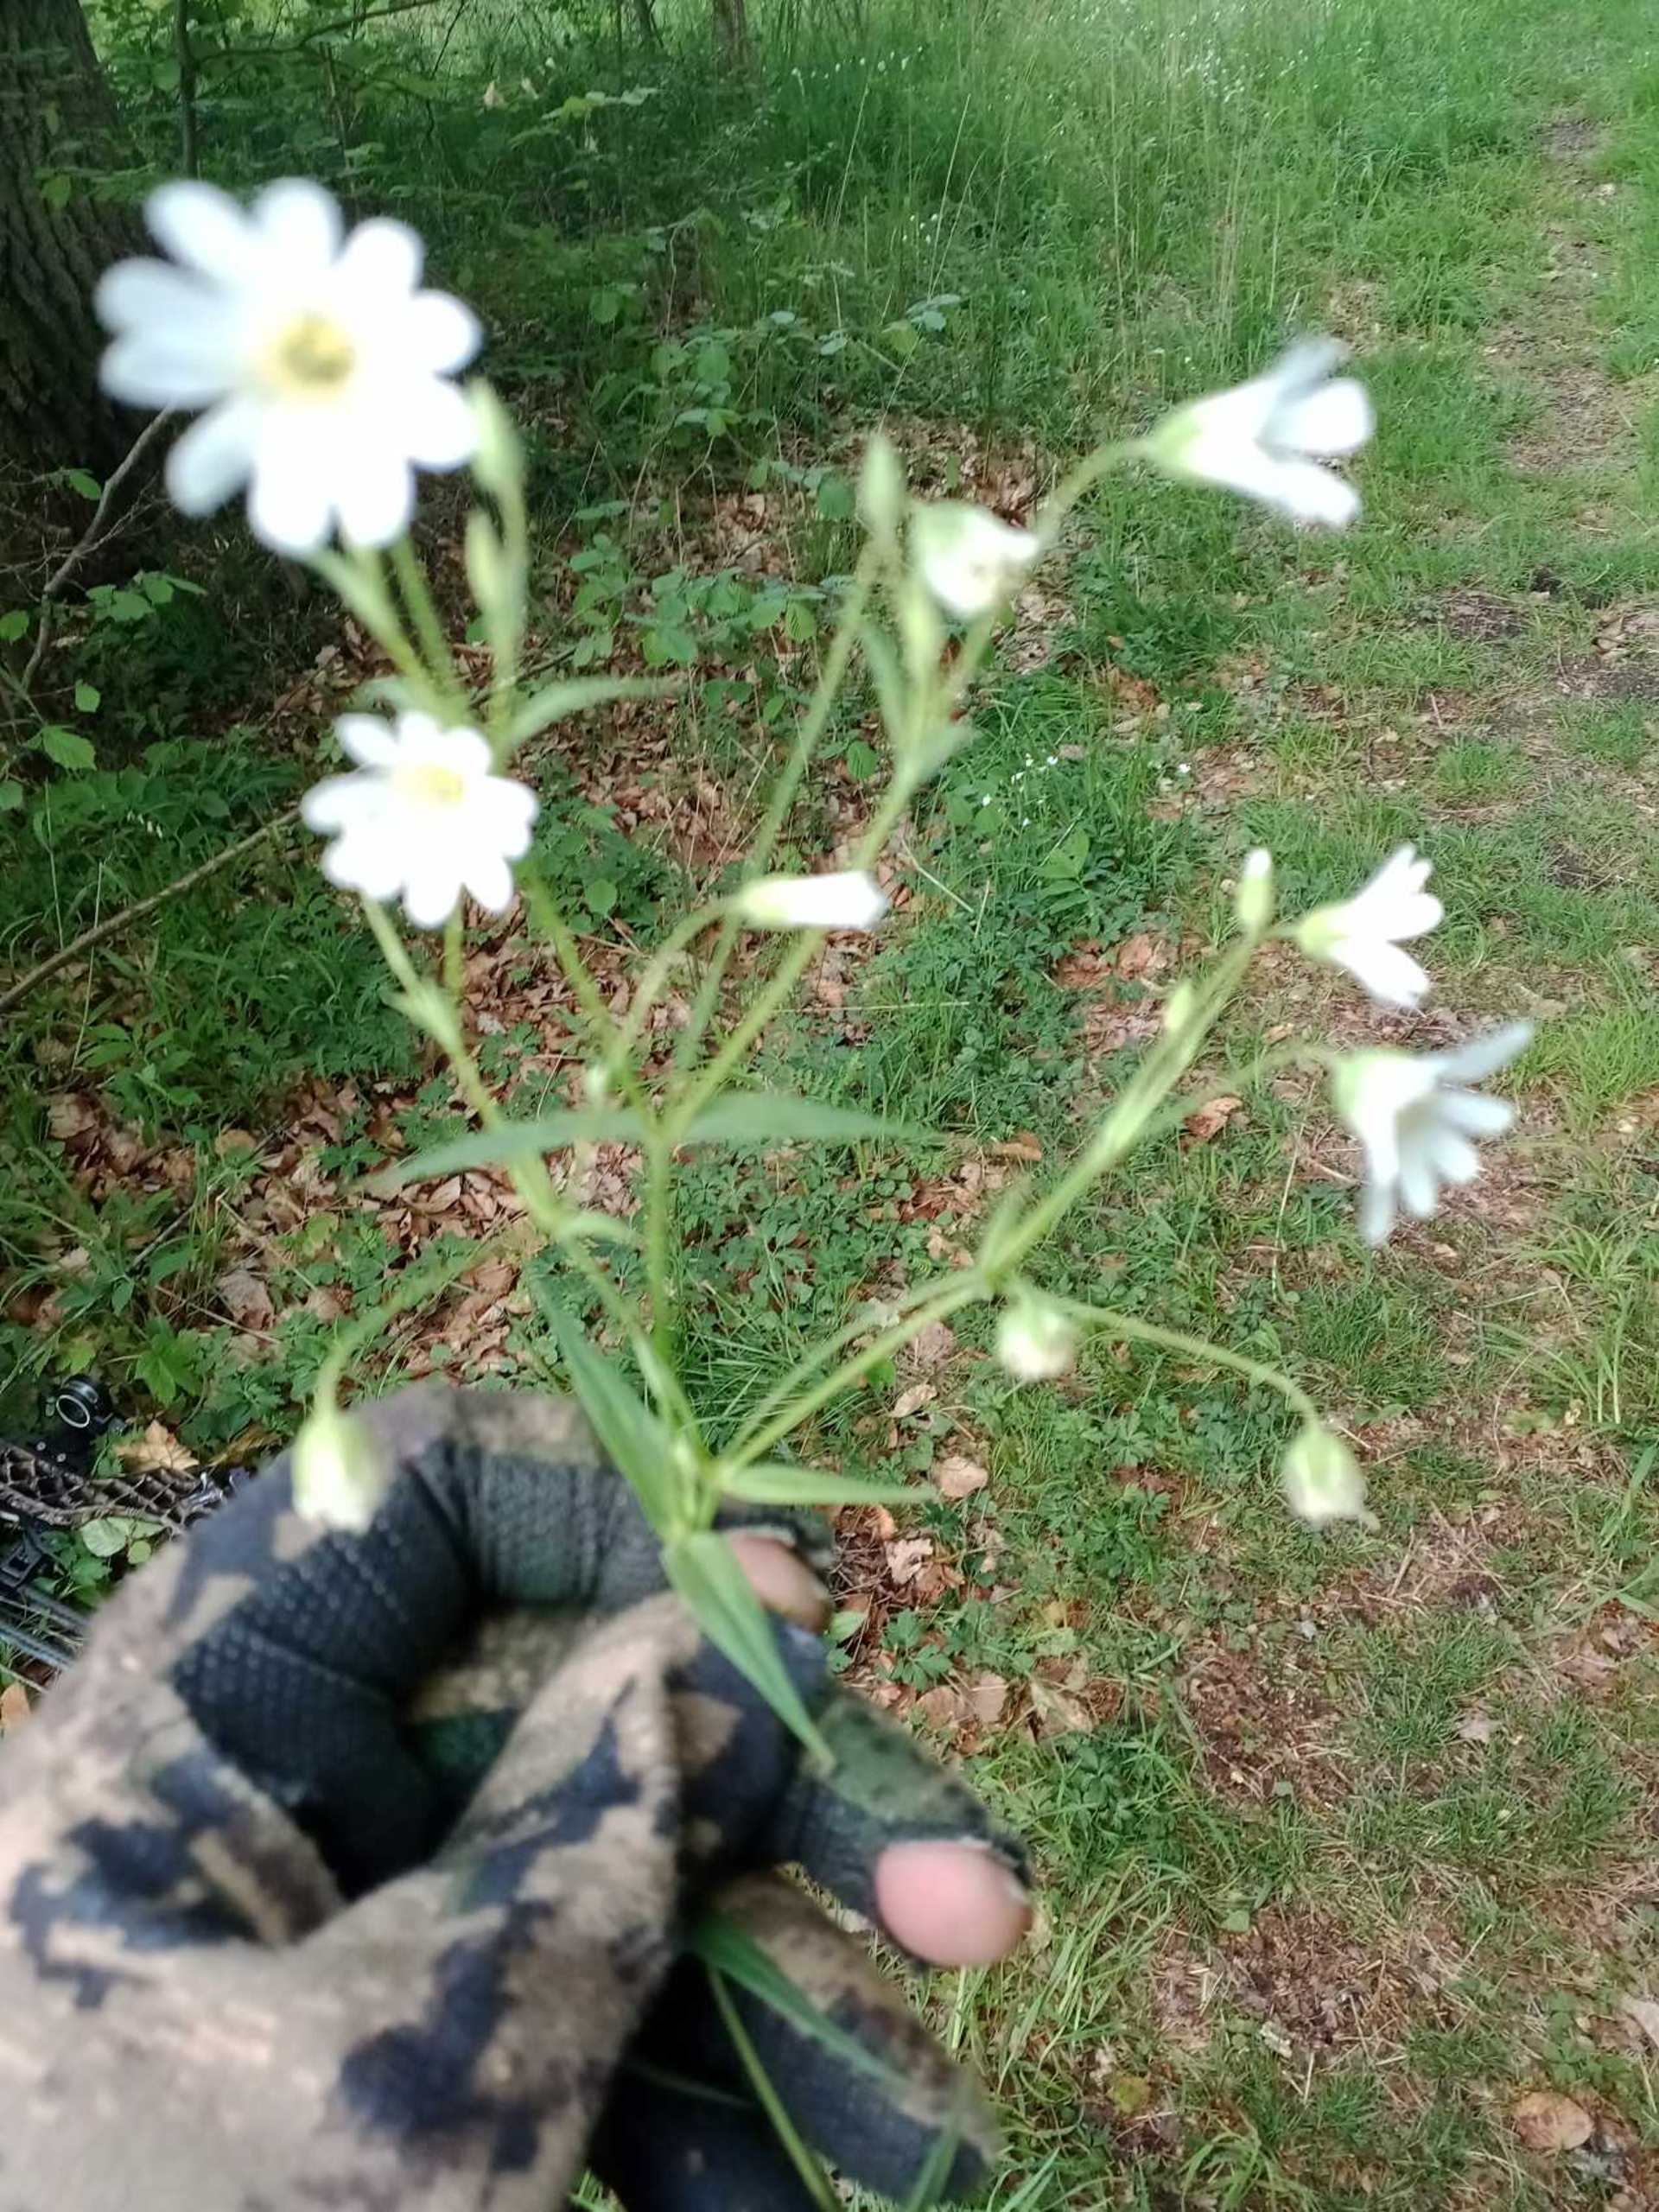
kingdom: Plantae
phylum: Tracheophyta
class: Magnoliopsida
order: Caryophyllales
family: Caryophyllaceae
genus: Rabelera
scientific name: Rabelera holostea
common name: Stor fladstjerne
